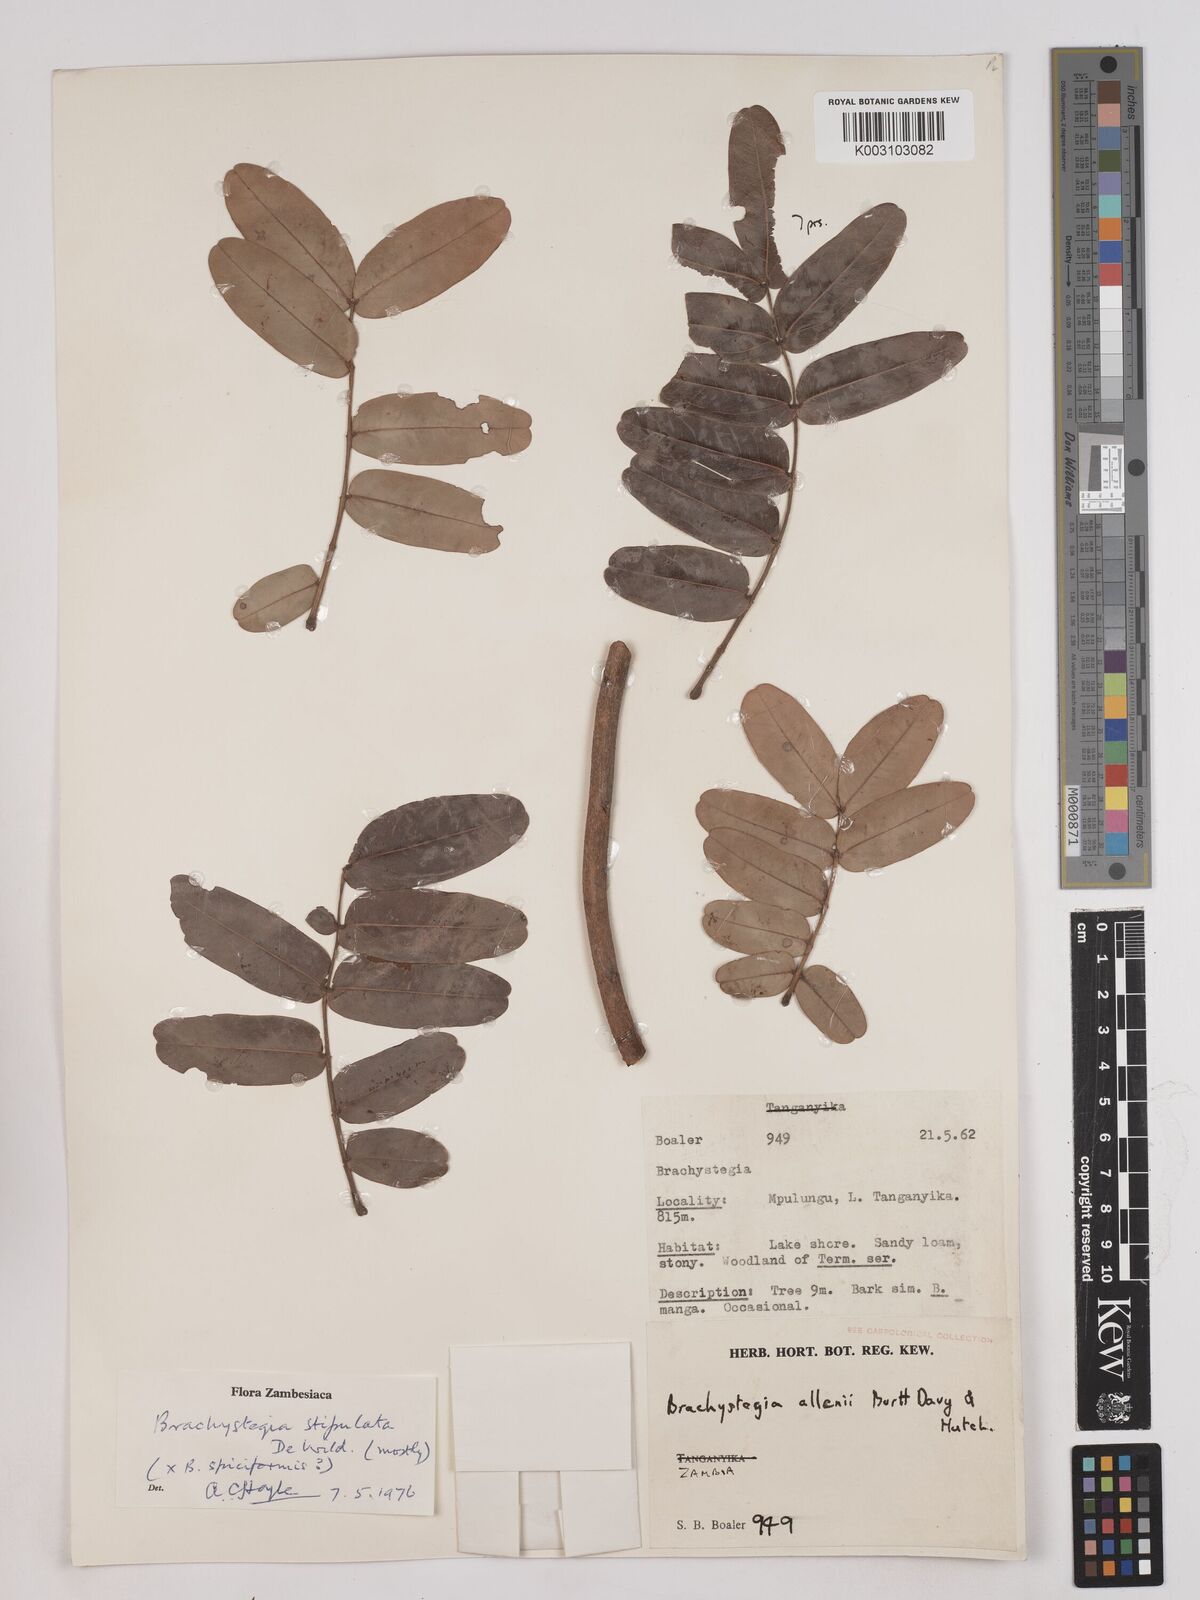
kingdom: Plantae
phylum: Tracheophyta
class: Magnoliopsida
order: Fabales
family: Fabaceae
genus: Brachystegia
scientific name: Brachystegia stipulata
